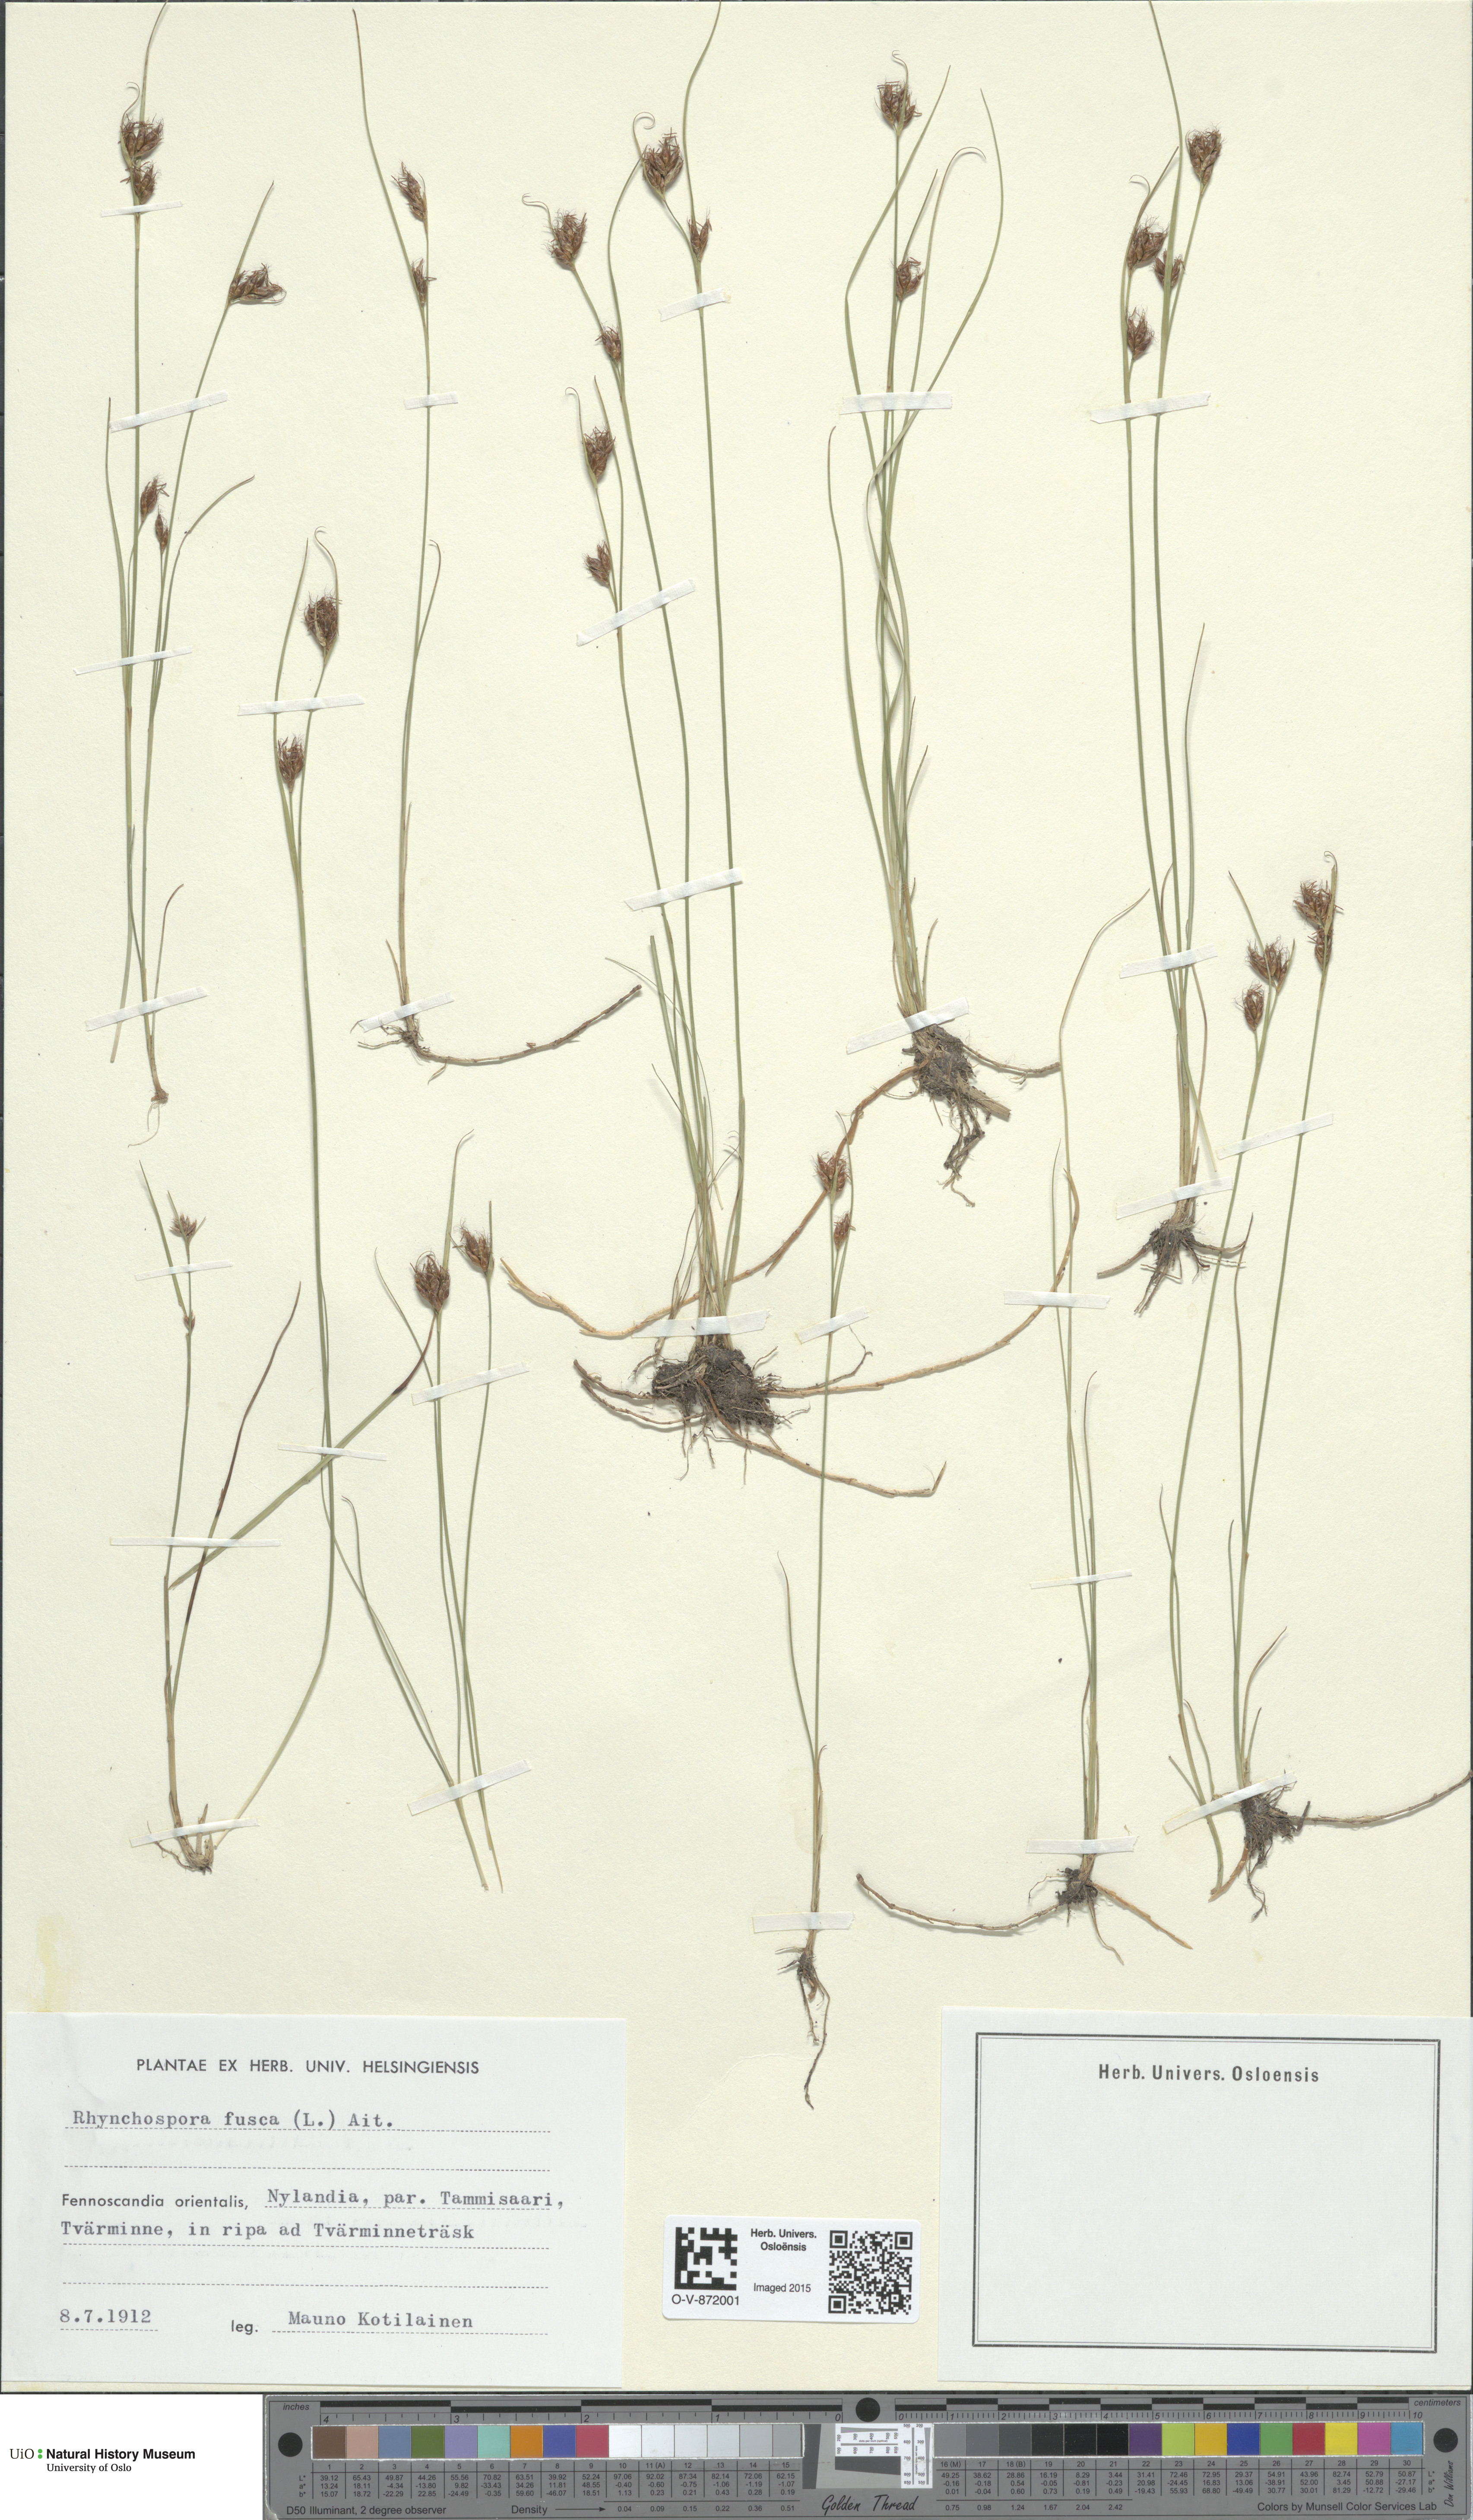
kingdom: Plantae
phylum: Tracheophyta
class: Liliopsida
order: Poales
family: Cyperaceae
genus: Rhynchospora
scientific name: Rhynchospora fusca
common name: Brown beak-sedge
